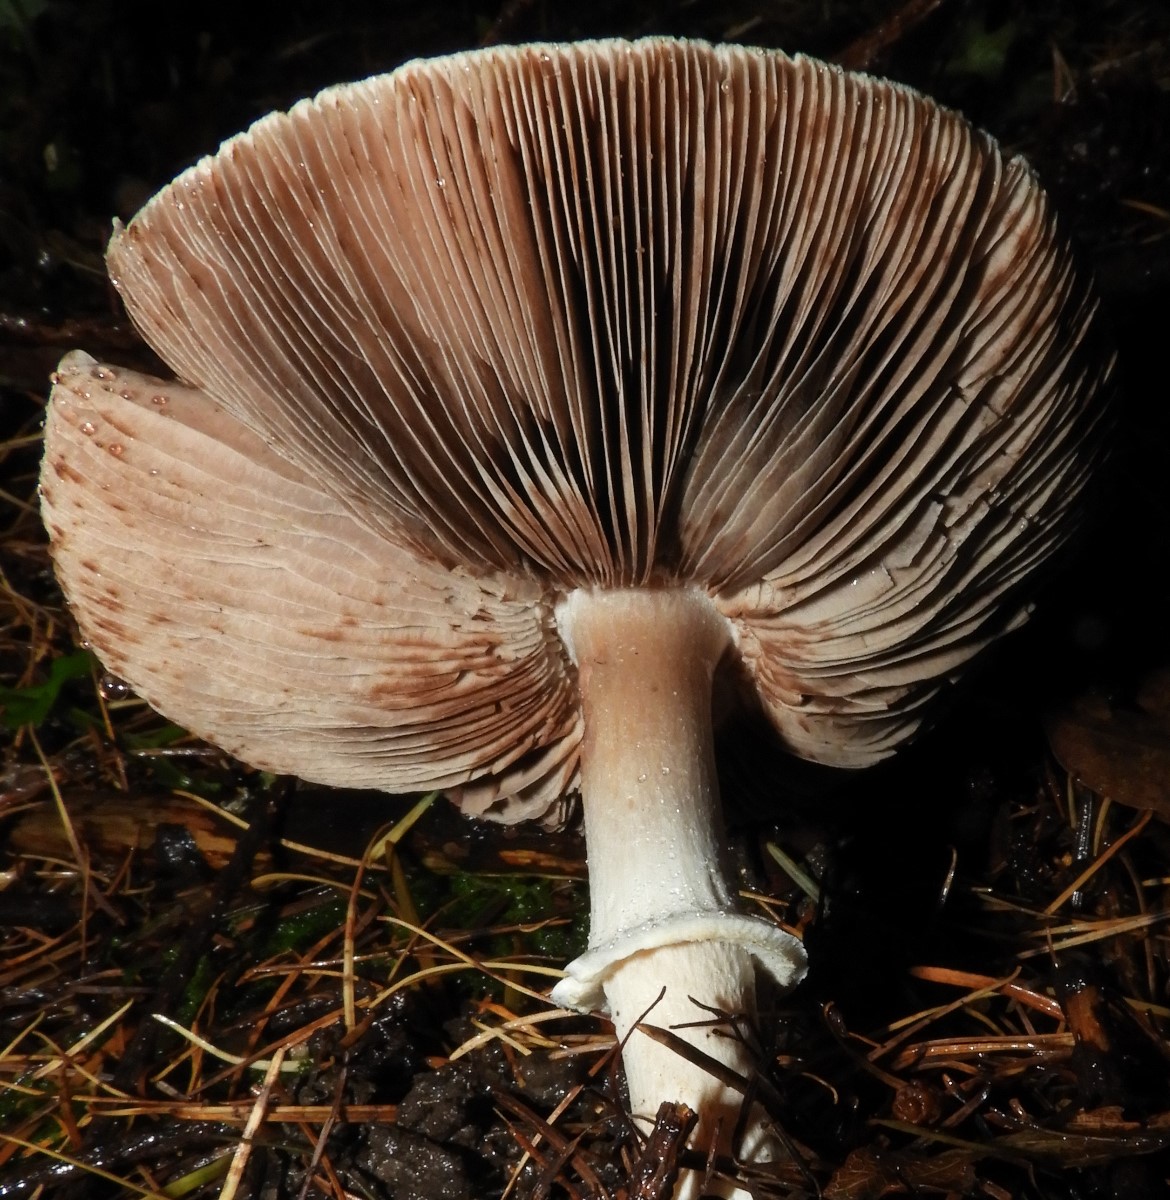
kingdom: Fungi
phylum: Basidiomycota
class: Agaricomycetes
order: Agaricales
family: Agaricaceae
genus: Agaricus
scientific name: Agaricus impudicus
